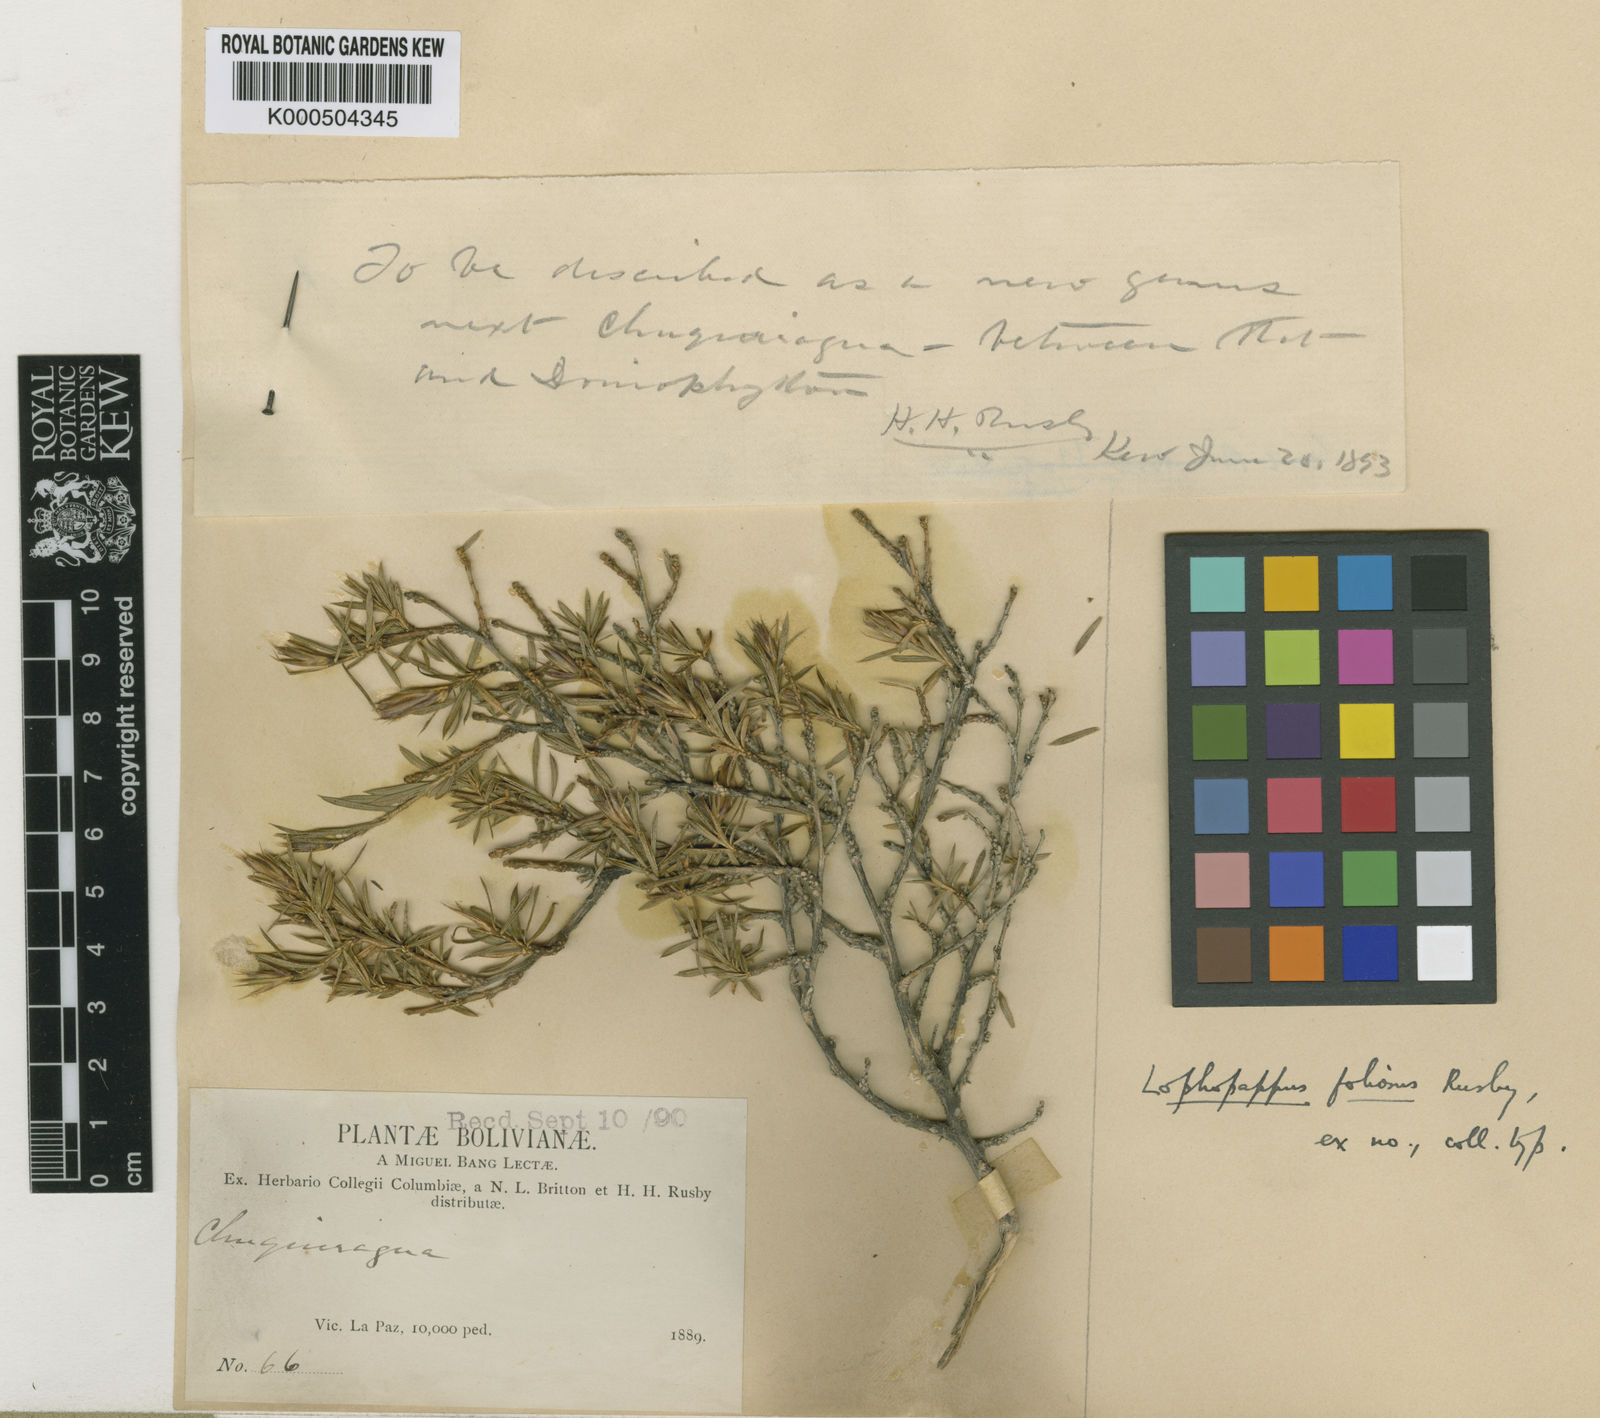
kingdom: Plantae
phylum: Tracheophyta
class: Magnoliopsida
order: Asterales
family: Asteraceae
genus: Lophopappus
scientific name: Lophopappus foliosus
